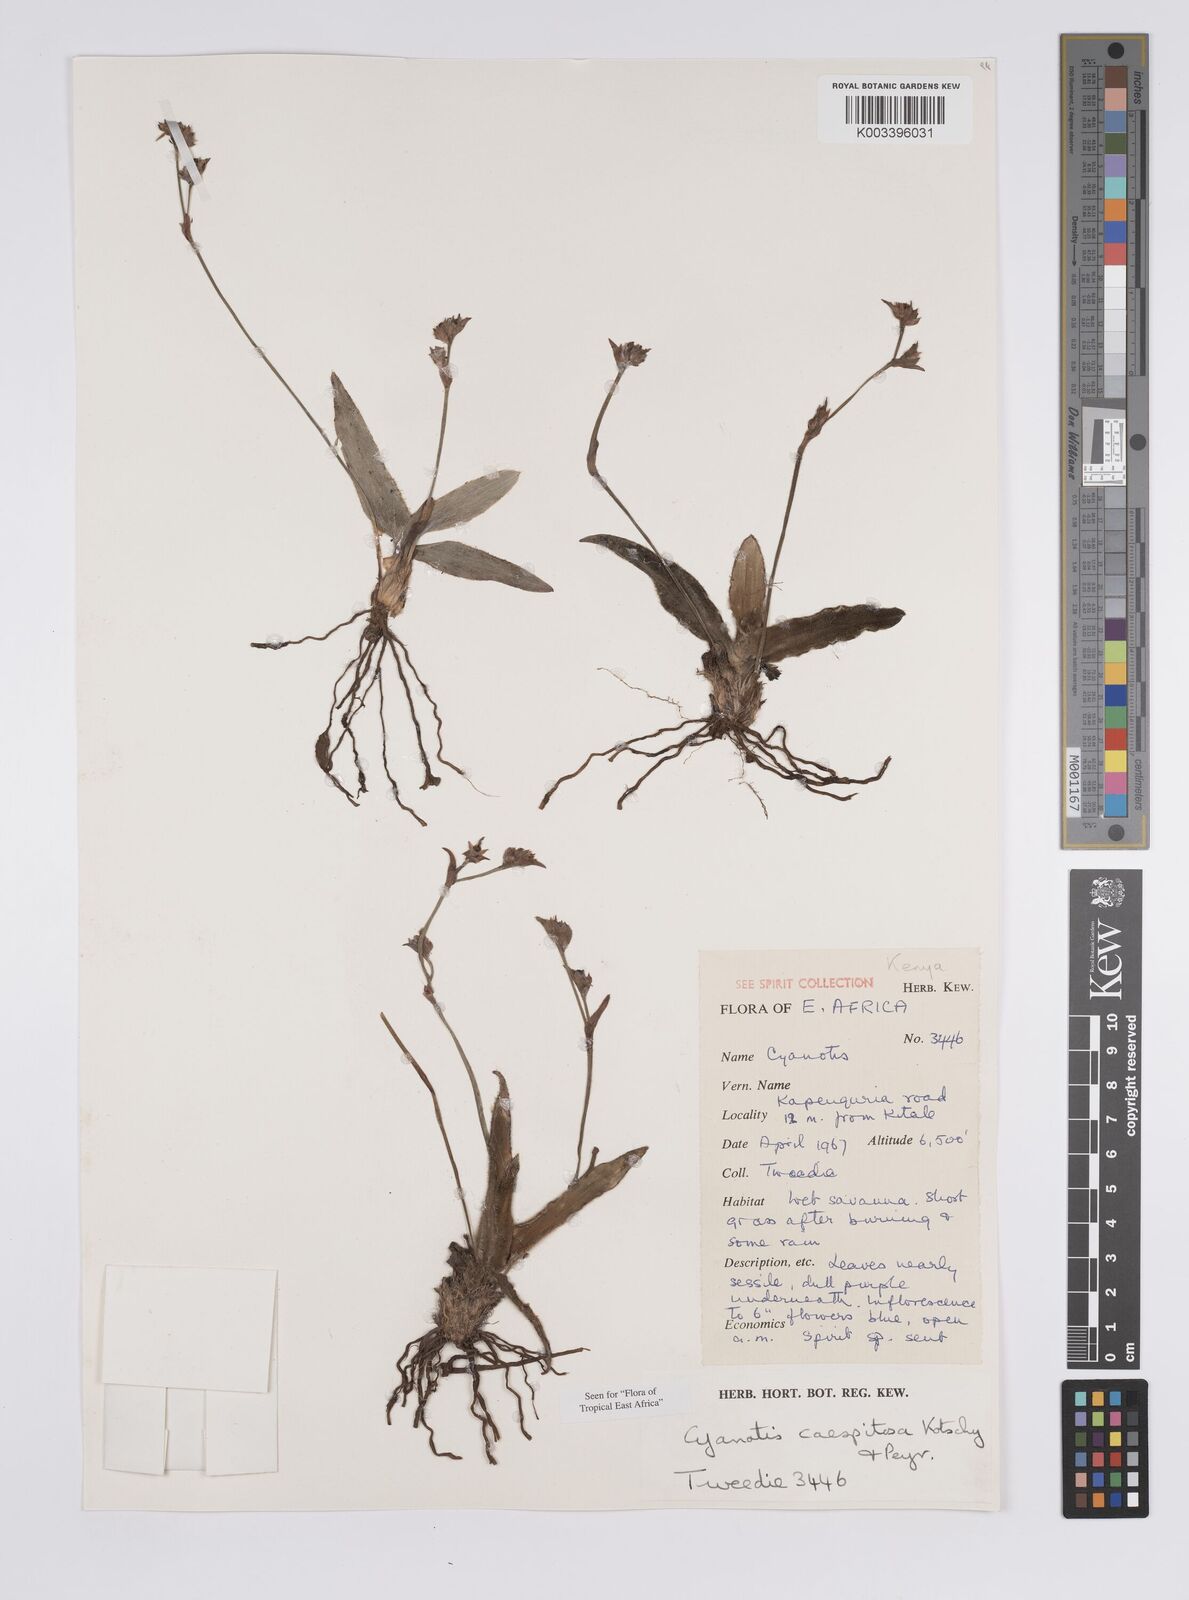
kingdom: Plantae
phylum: Tracheophyta
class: Liliopsida
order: Commelinales
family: Commelinaceae
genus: Cyanotis
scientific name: Cyanotis caespitosa
